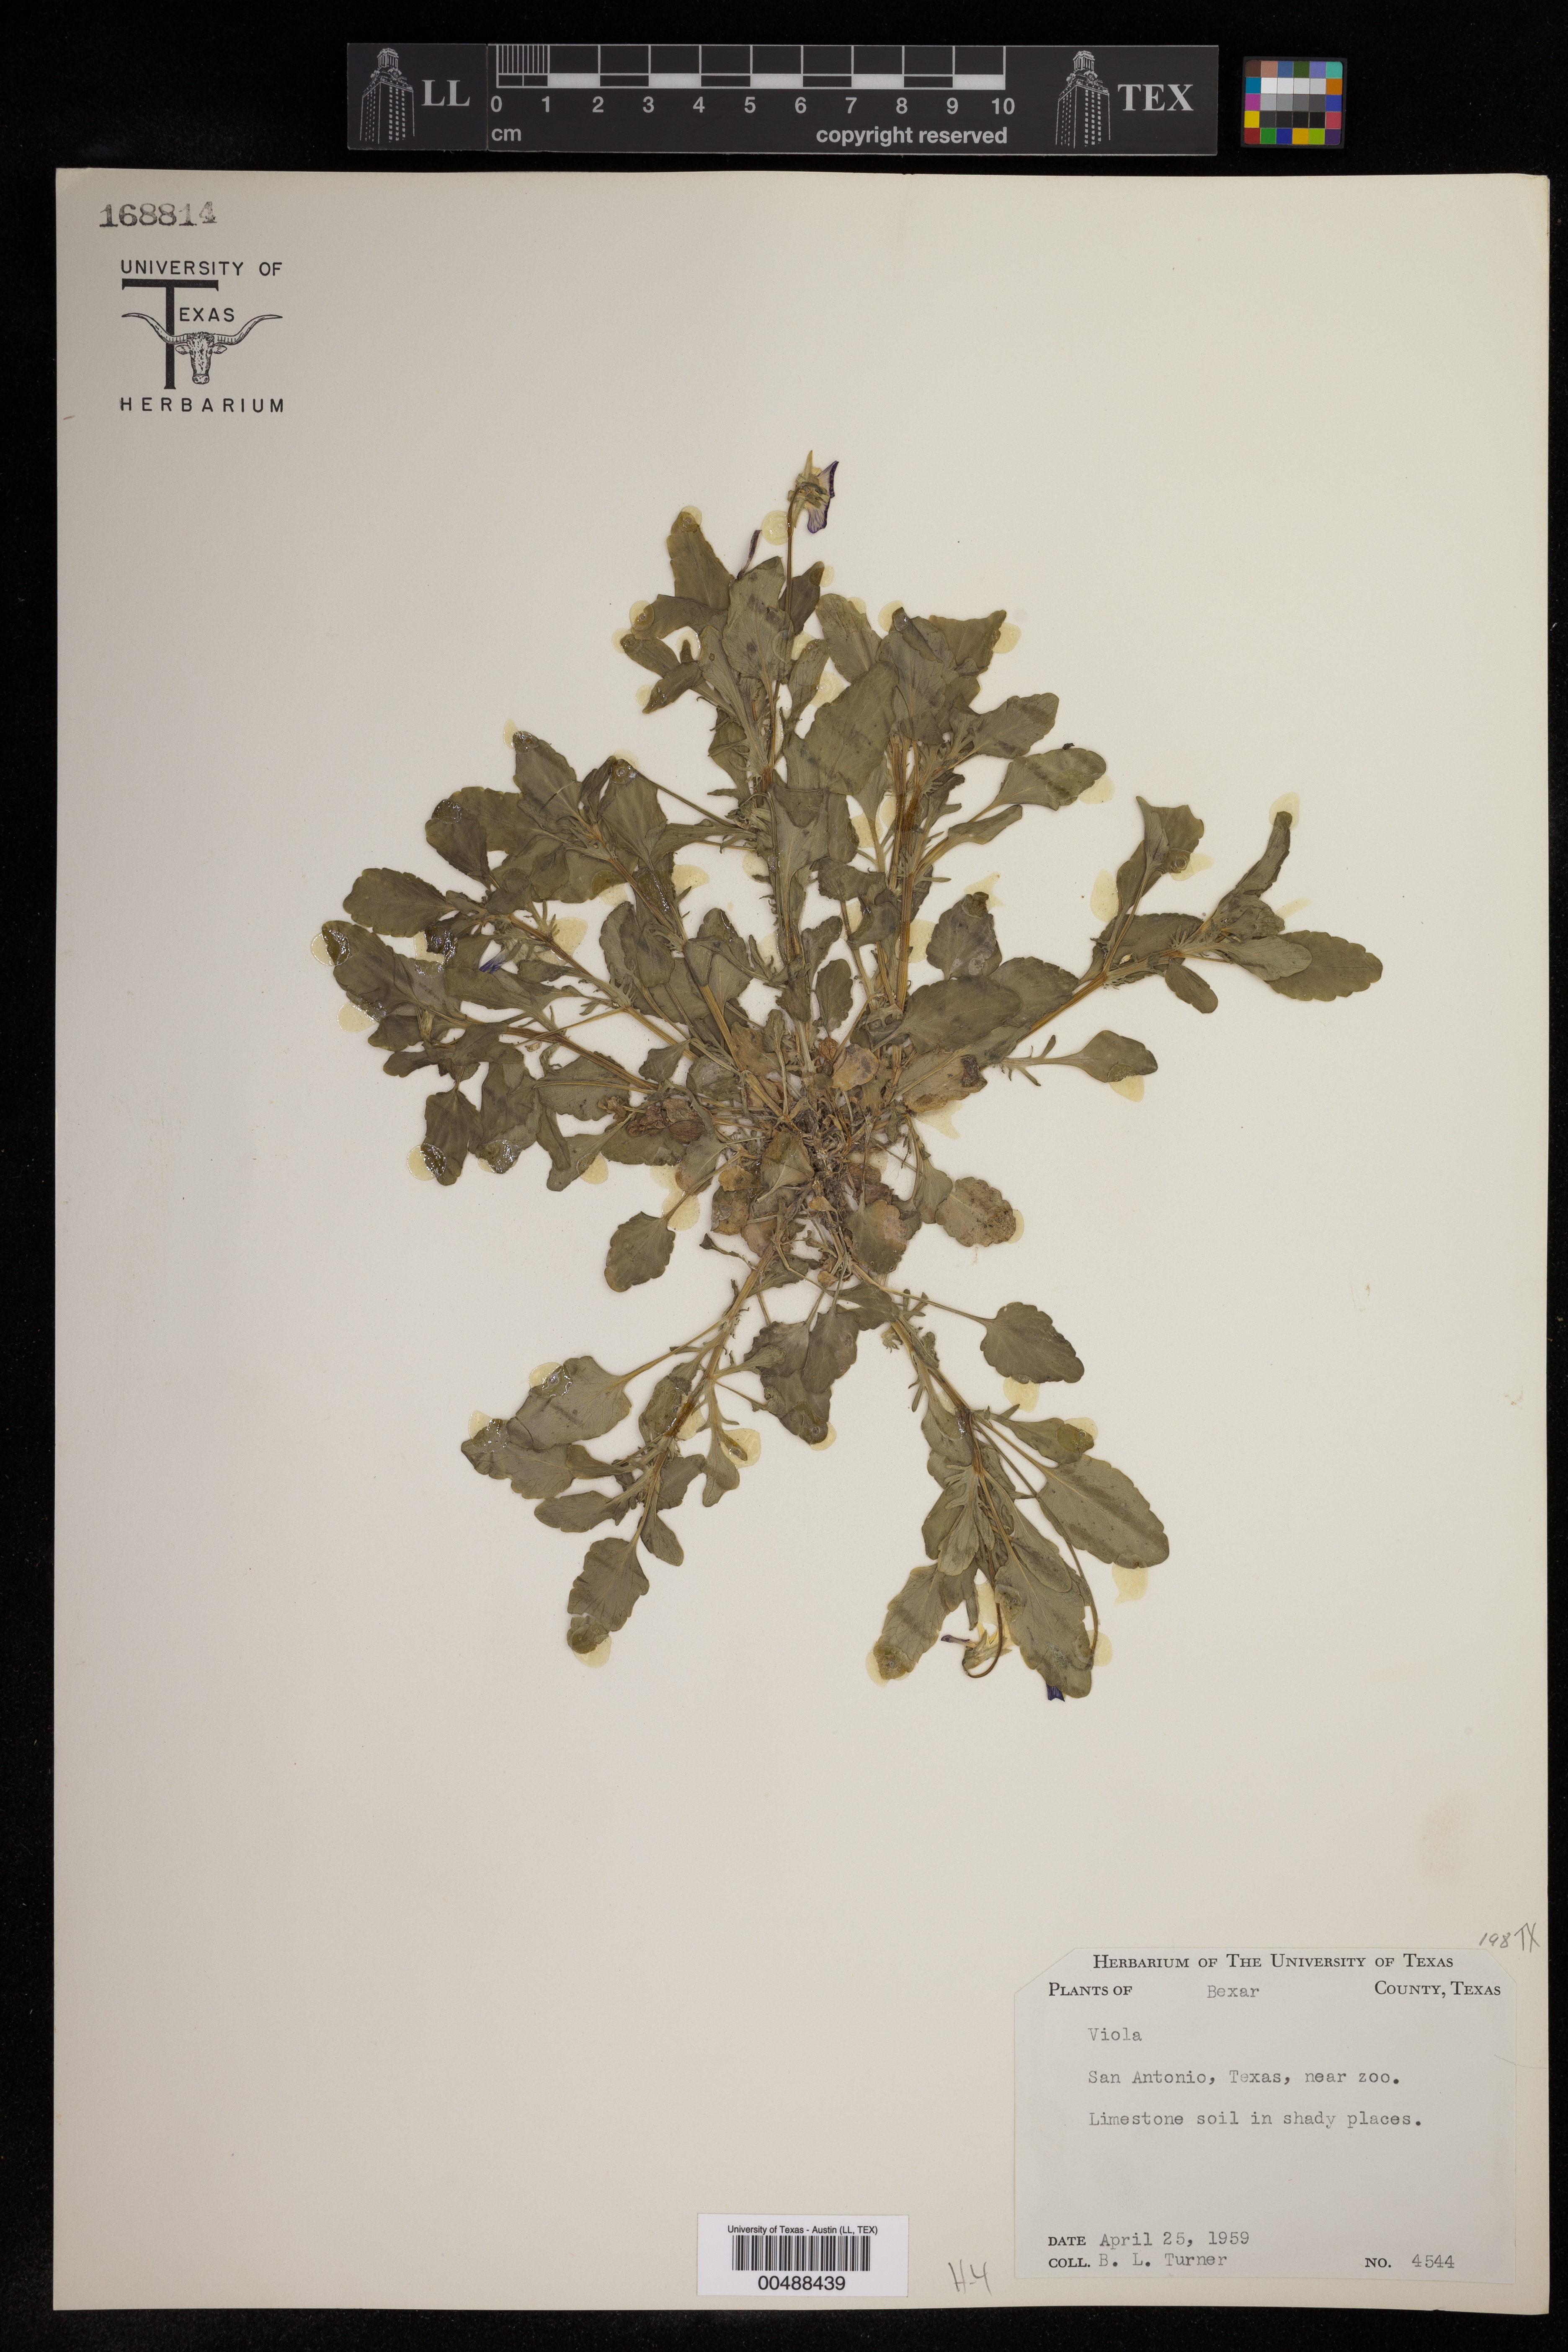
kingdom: Plantae
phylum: Tracheophyta
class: Magnoliopsida
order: Malpighiales
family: Violaceae
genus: Viola
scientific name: Viola
